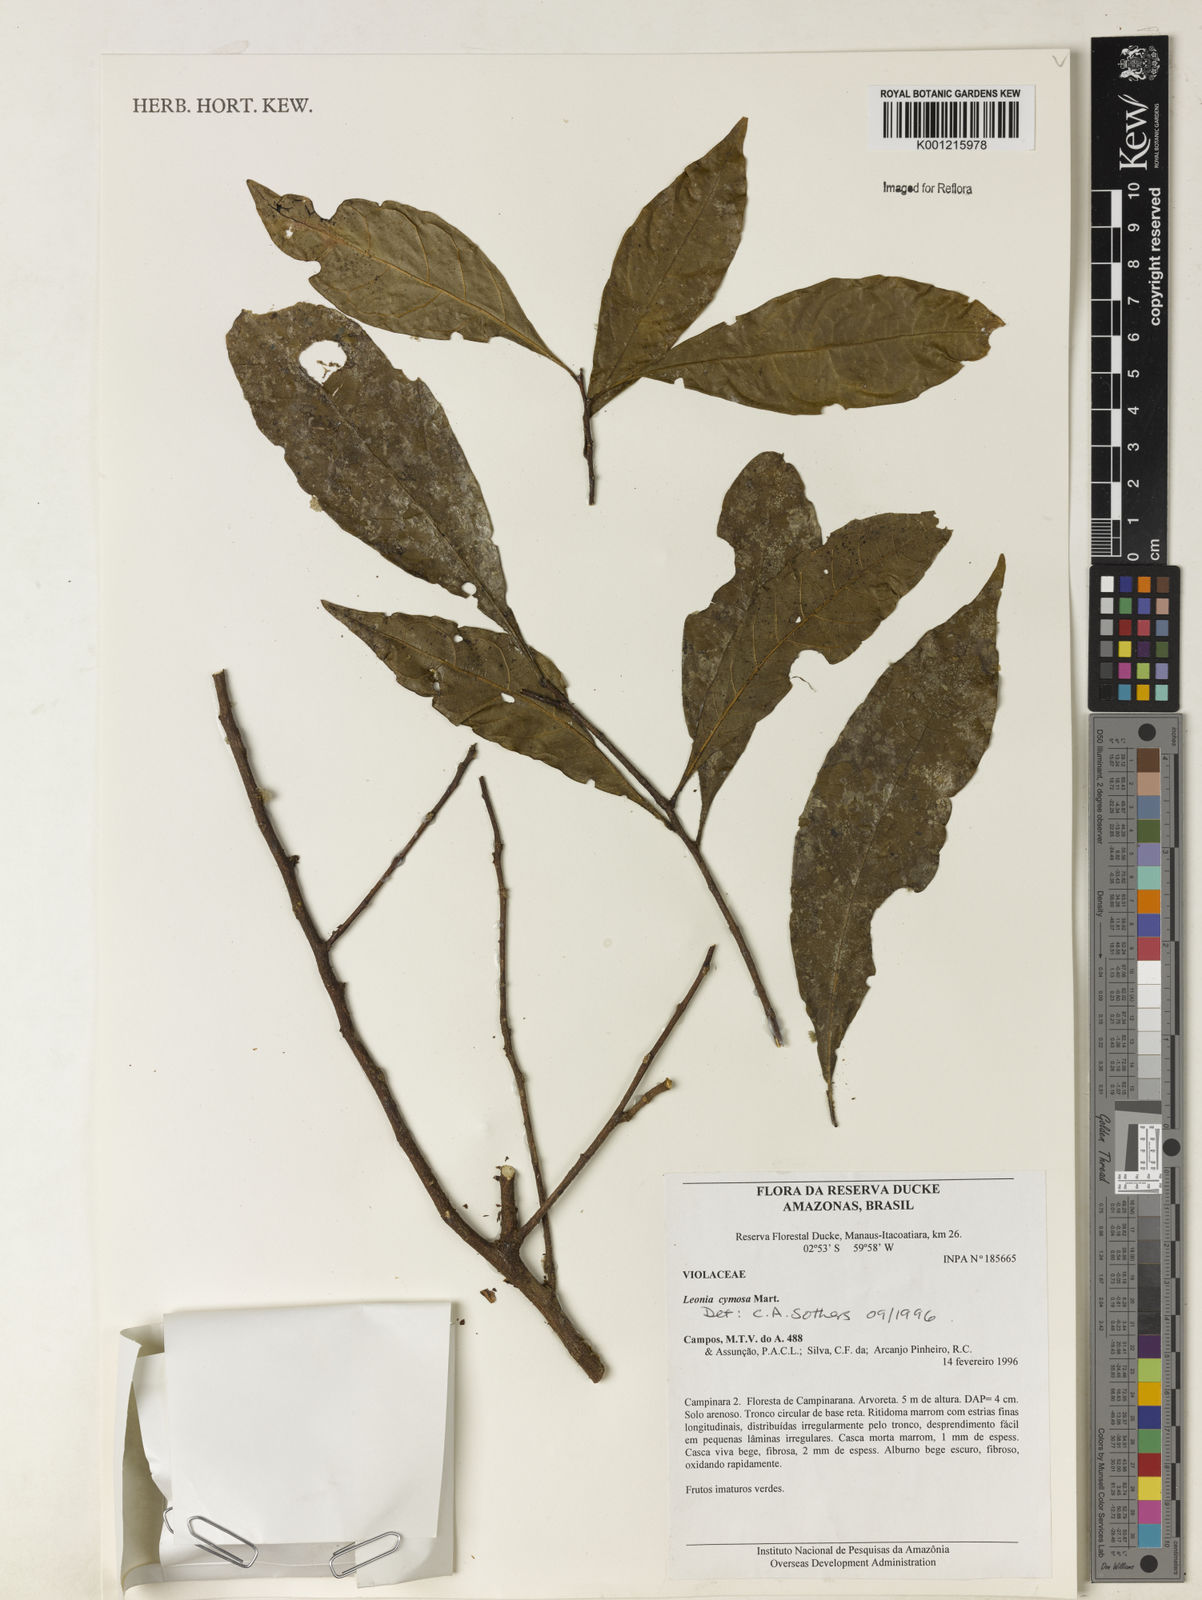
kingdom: Plantae
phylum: Tracheophyta
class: Magnoliopsida
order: Malpighiales
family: Violaceae
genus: Leonia
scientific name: Leonia cymosa
